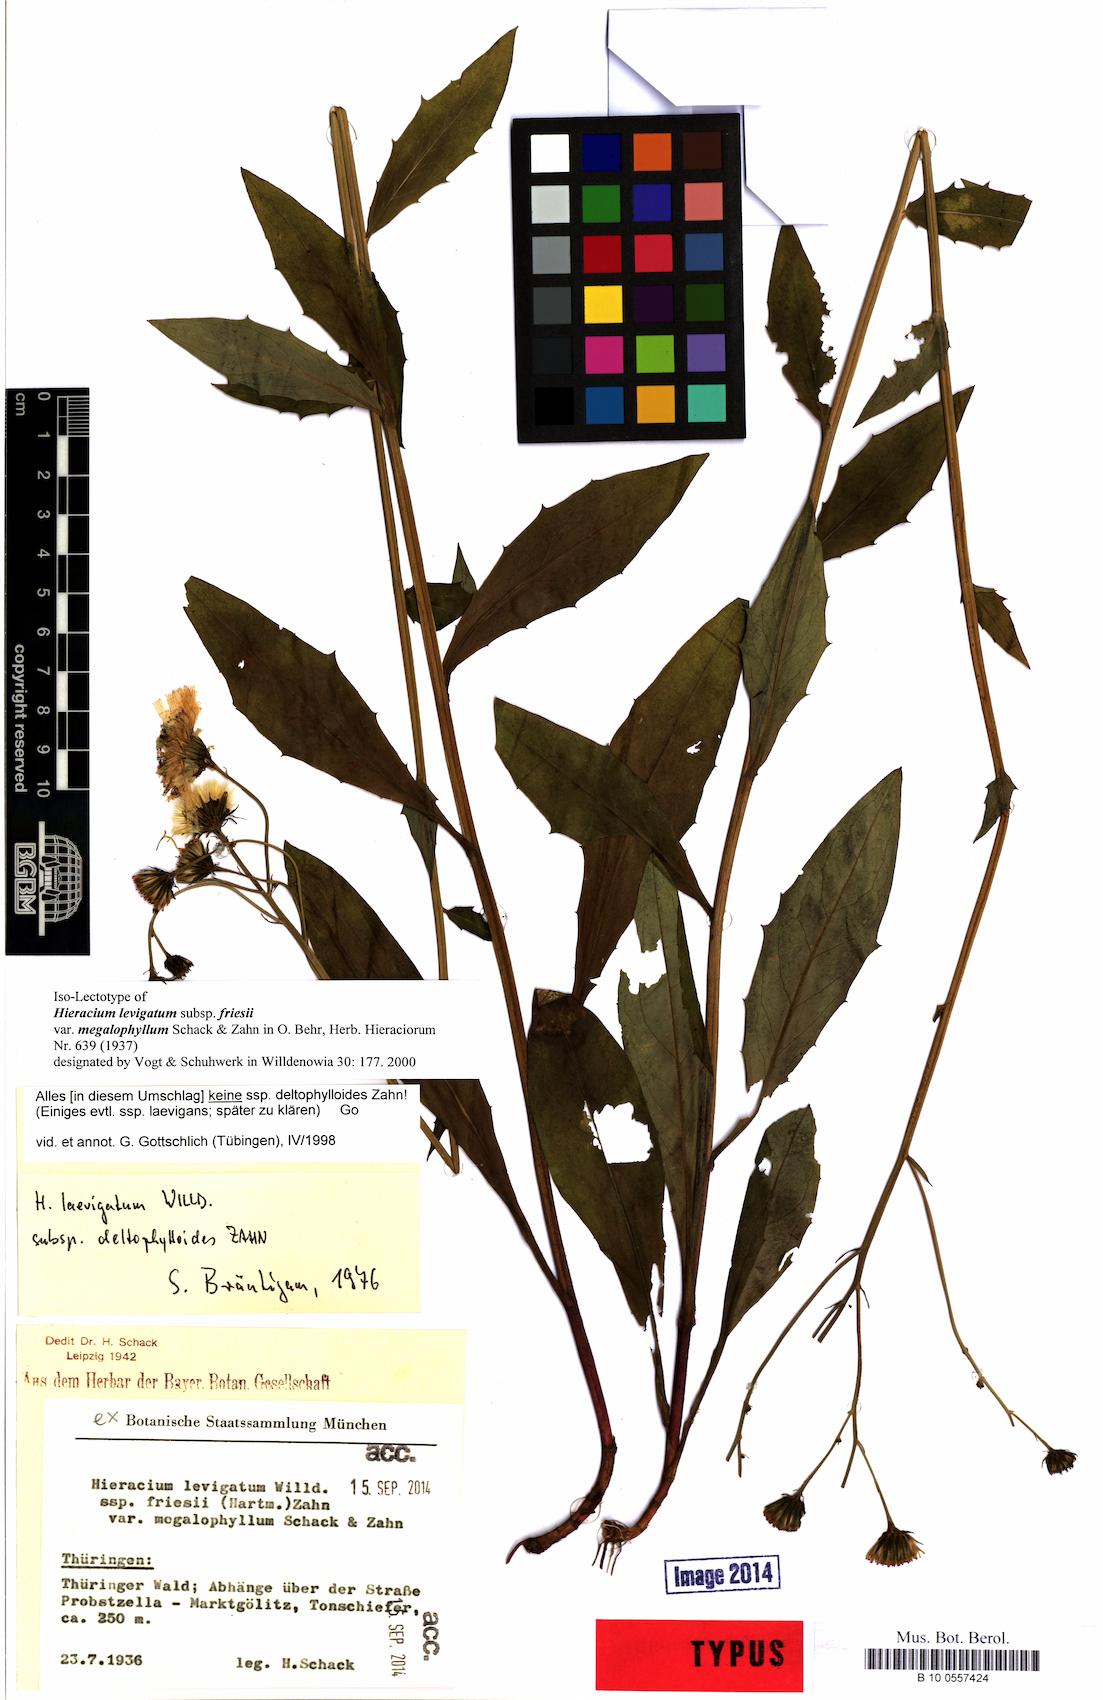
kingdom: Plantae
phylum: Tracheophyta
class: Magnoliopsida
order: Asterales
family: Asteraceae
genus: Hieracium
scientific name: Hieracium
